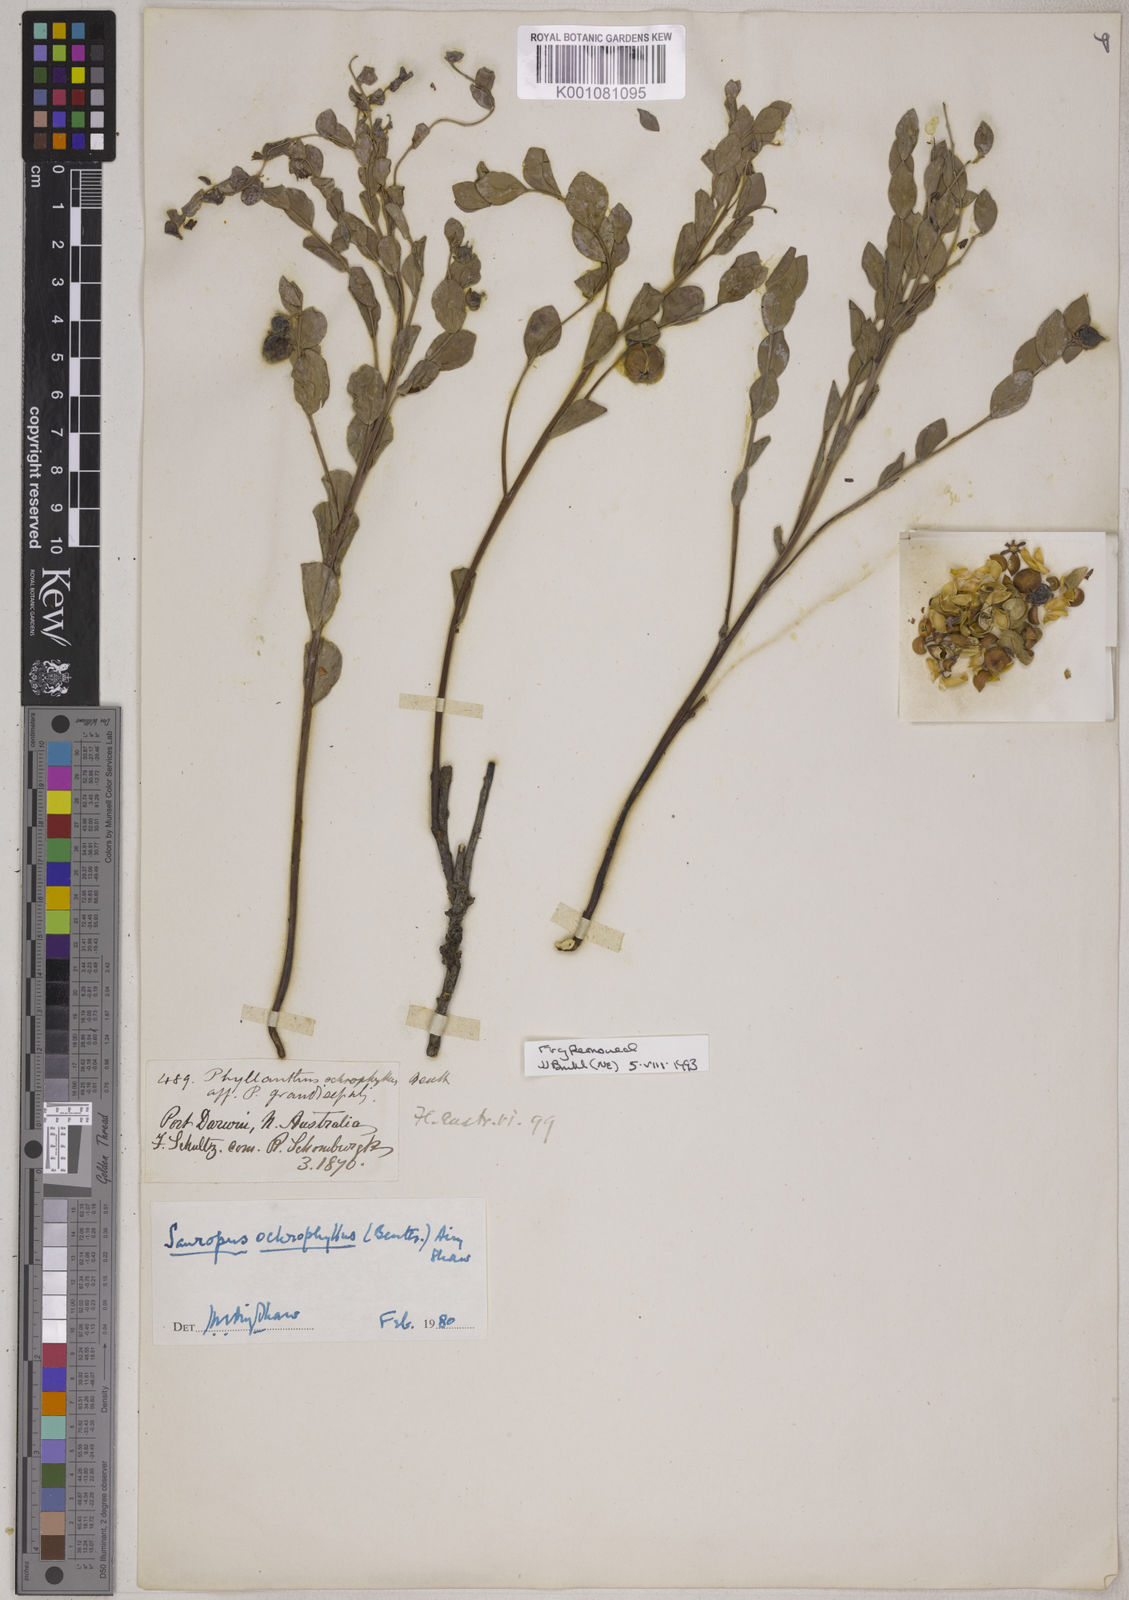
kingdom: Plantae
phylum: Tracheophyta
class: Magnoliopsida
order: Malpighiales
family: Phyllanthaceae
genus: Synostemon
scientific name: Synostemon ochrophyllus
